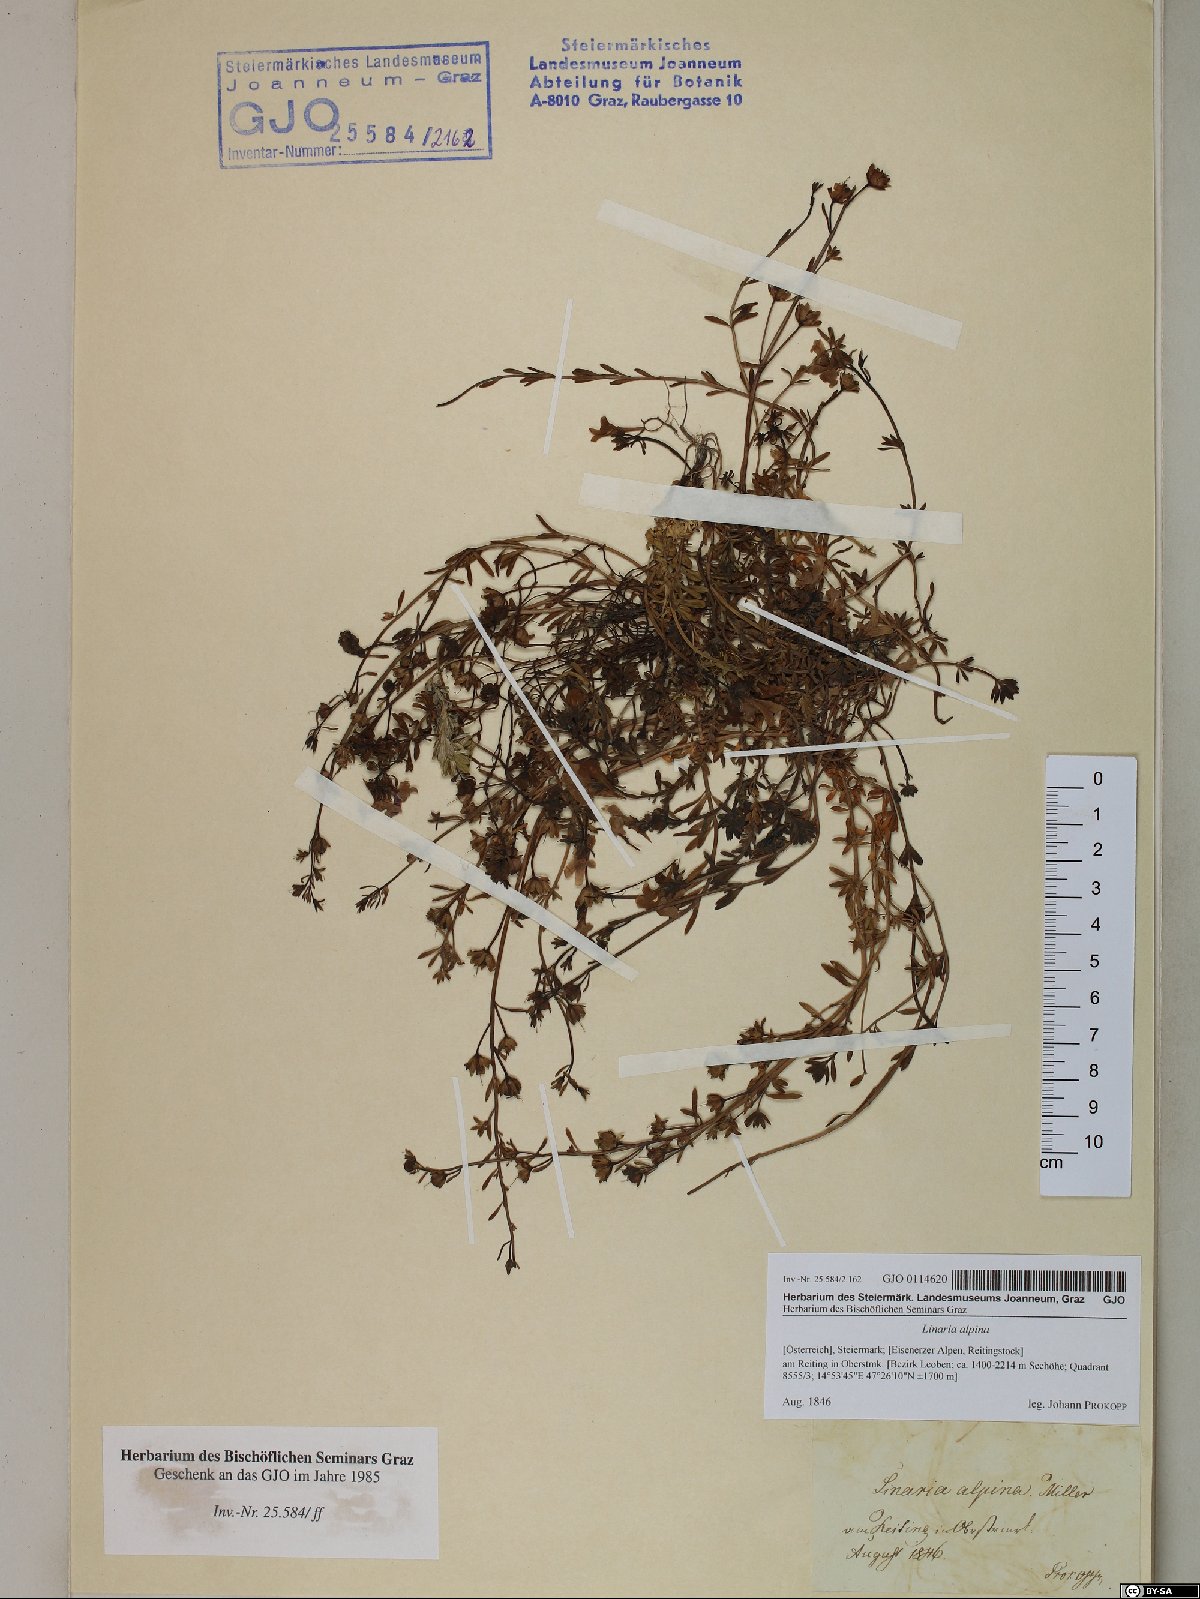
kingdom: Plantae
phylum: Tracheophyta
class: Magnoliopsida
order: Lamiales
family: Plantaginaceae
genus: Linaria
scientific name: Linaria alpina
